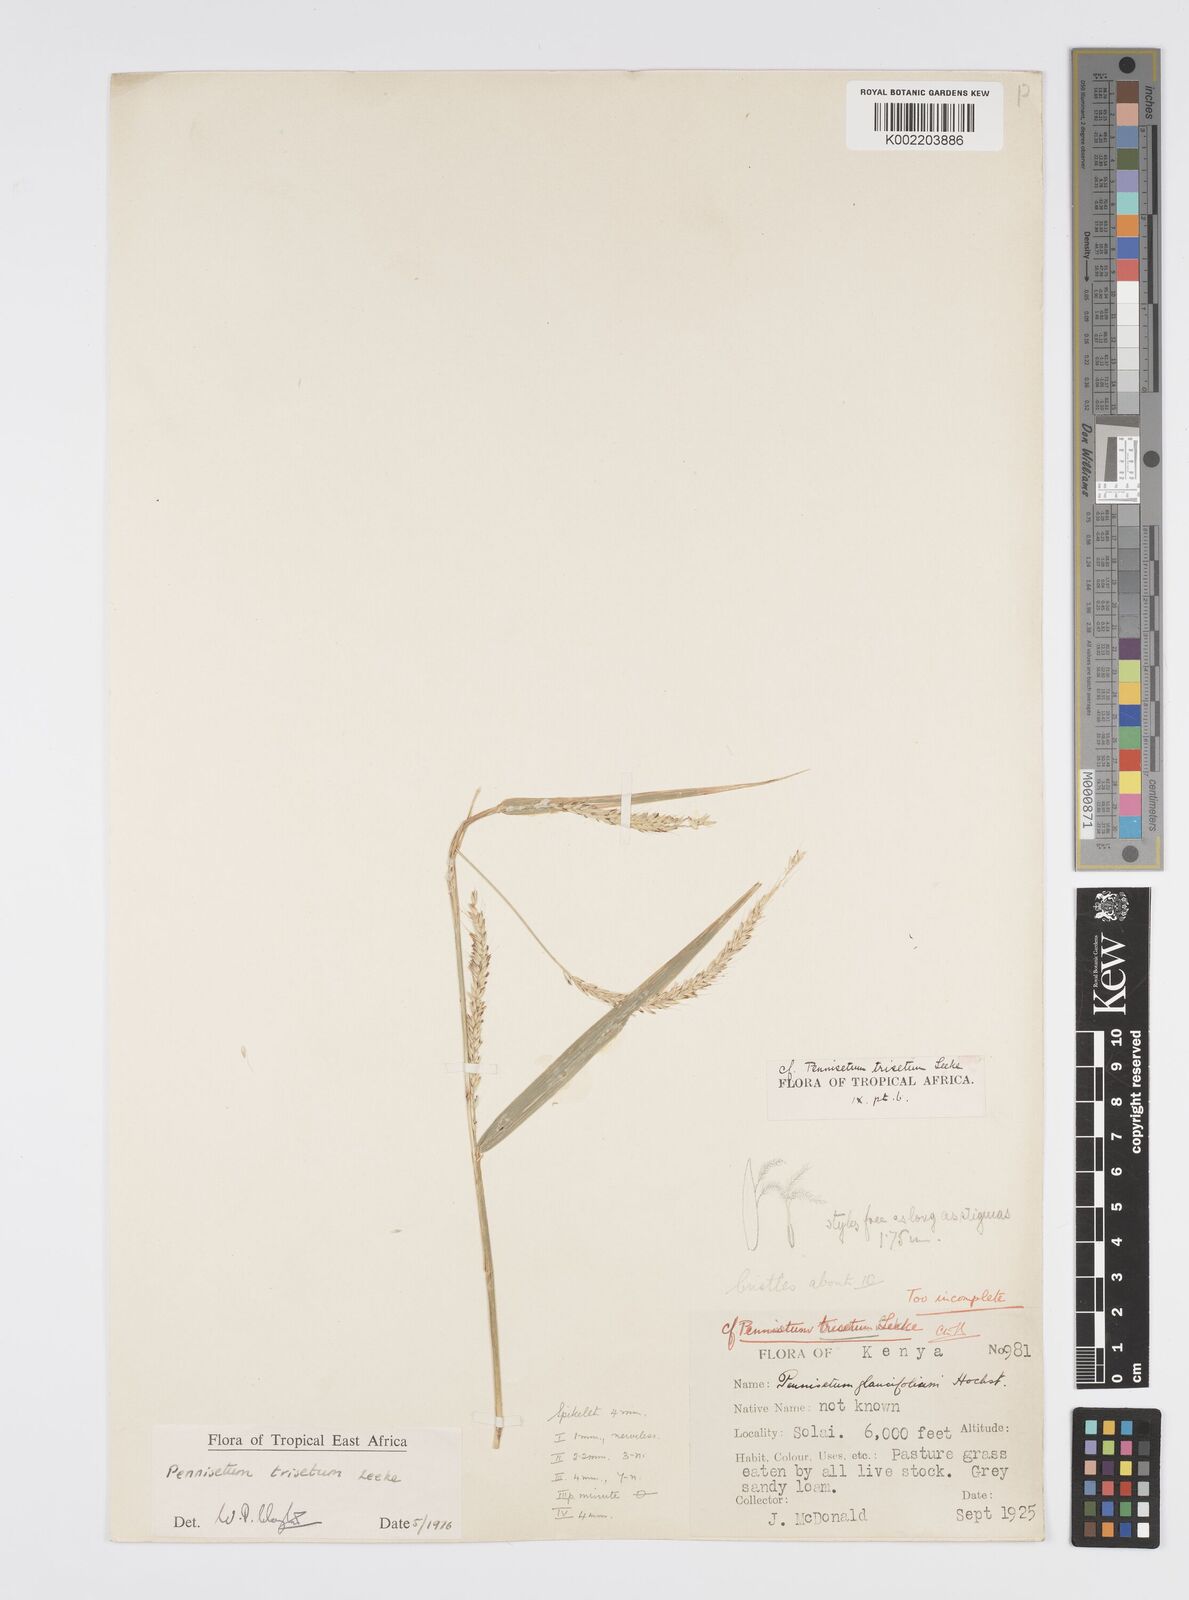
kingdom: Plantae
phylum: Tracheophyta
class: Liliopsida
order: Poales
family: Poaceae
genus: Cenchrus
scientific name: Cenchrus trisetus
